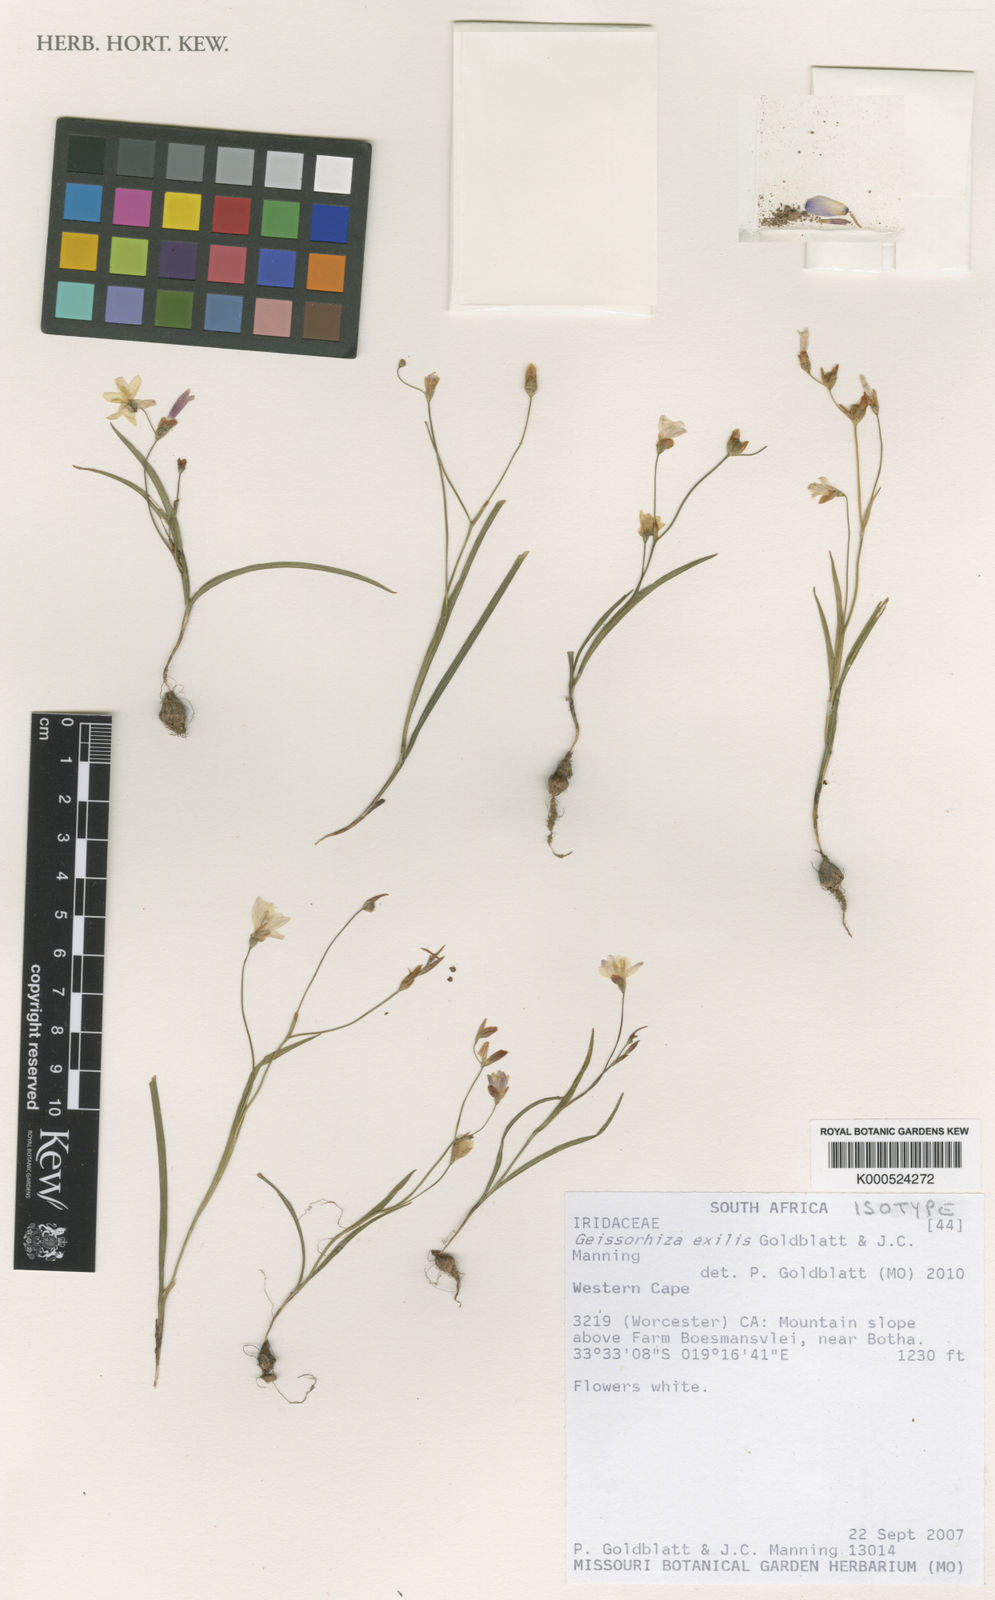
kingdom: Plantae
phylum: Tracheophyta
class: Liliopsida
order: Asparagales
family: Iridaceae
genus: Geissorhiza
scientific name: Geissorhiza exilis
